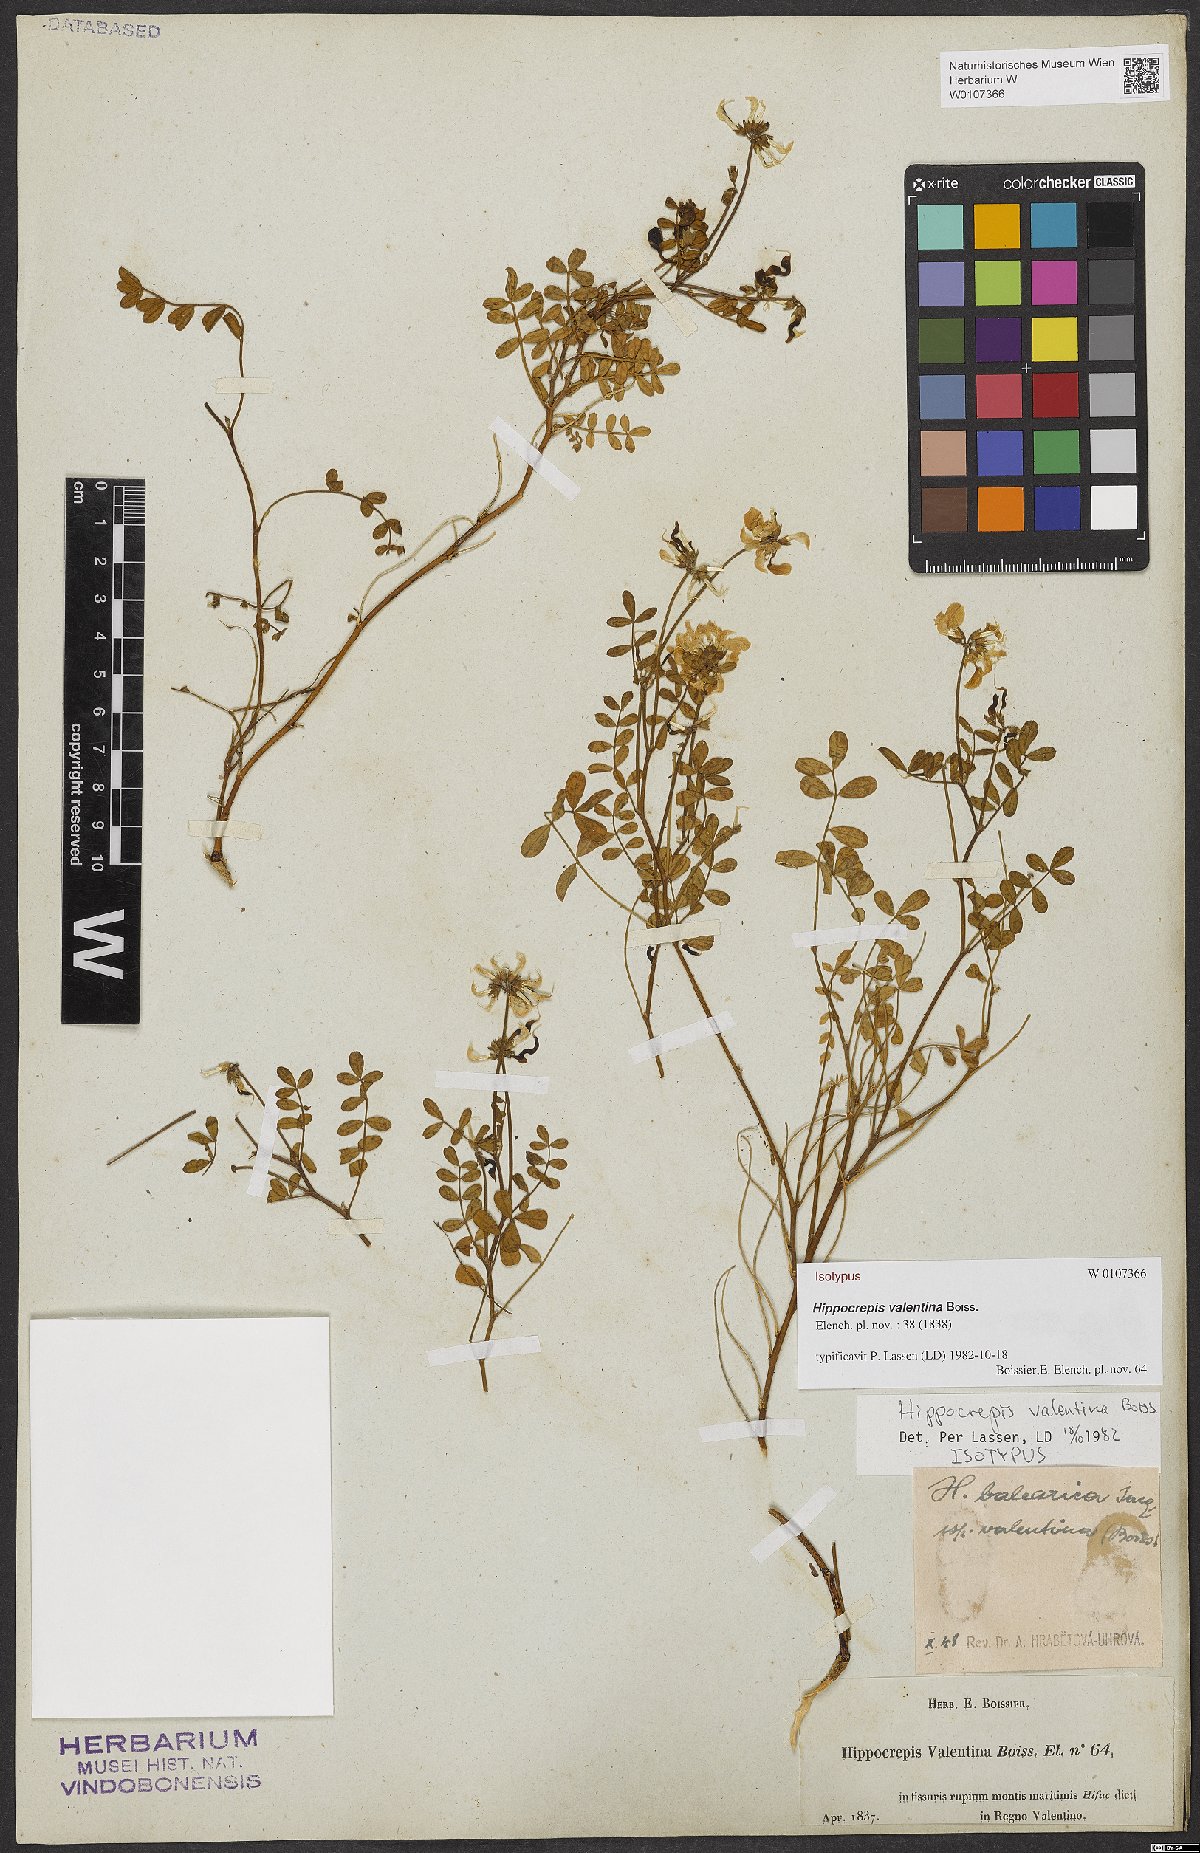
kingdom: Plantae
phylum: Tracheophyta
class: Magnoliopsida
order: Fabales
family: Fabaceae
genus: Hippocrepis
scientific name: Hippocrepis valentina
